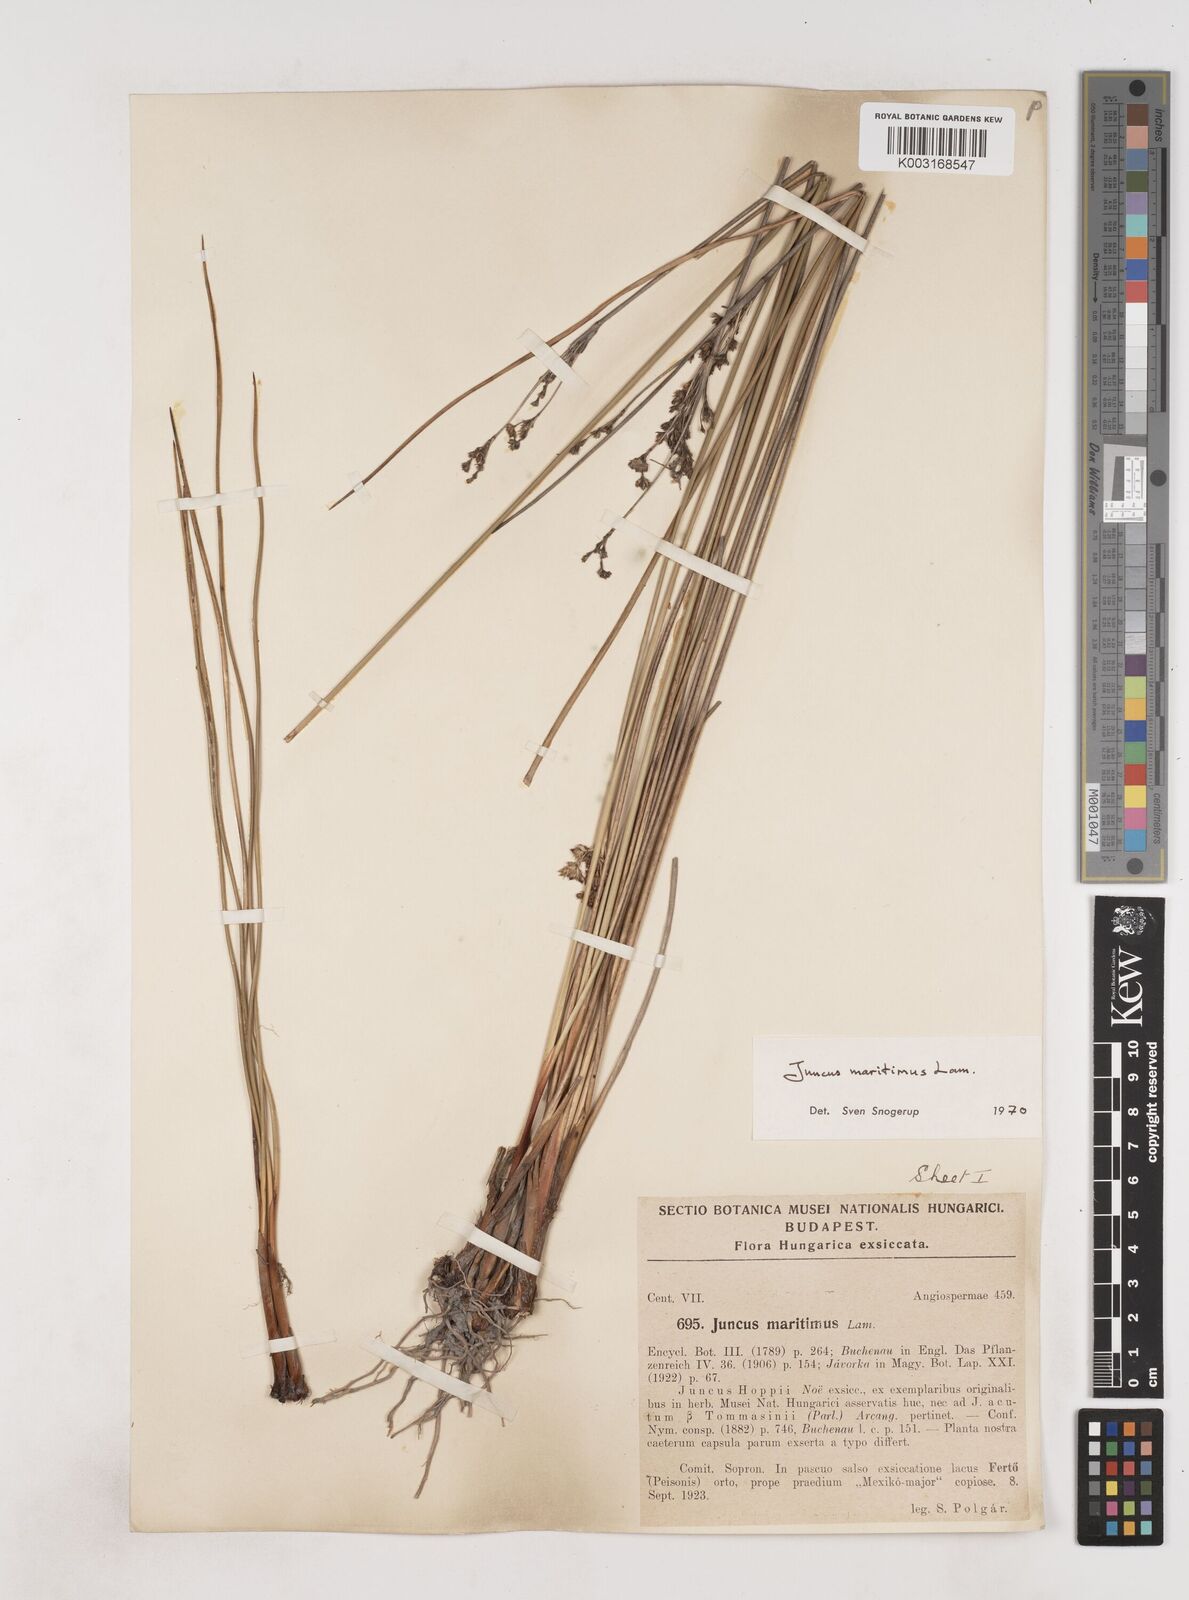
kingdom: Plantae
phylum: Tracheophyta
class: Liliopsida
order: Poales
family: Juncaceae
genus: Juncus
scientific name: Juncus maritimus
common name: Sea rush
